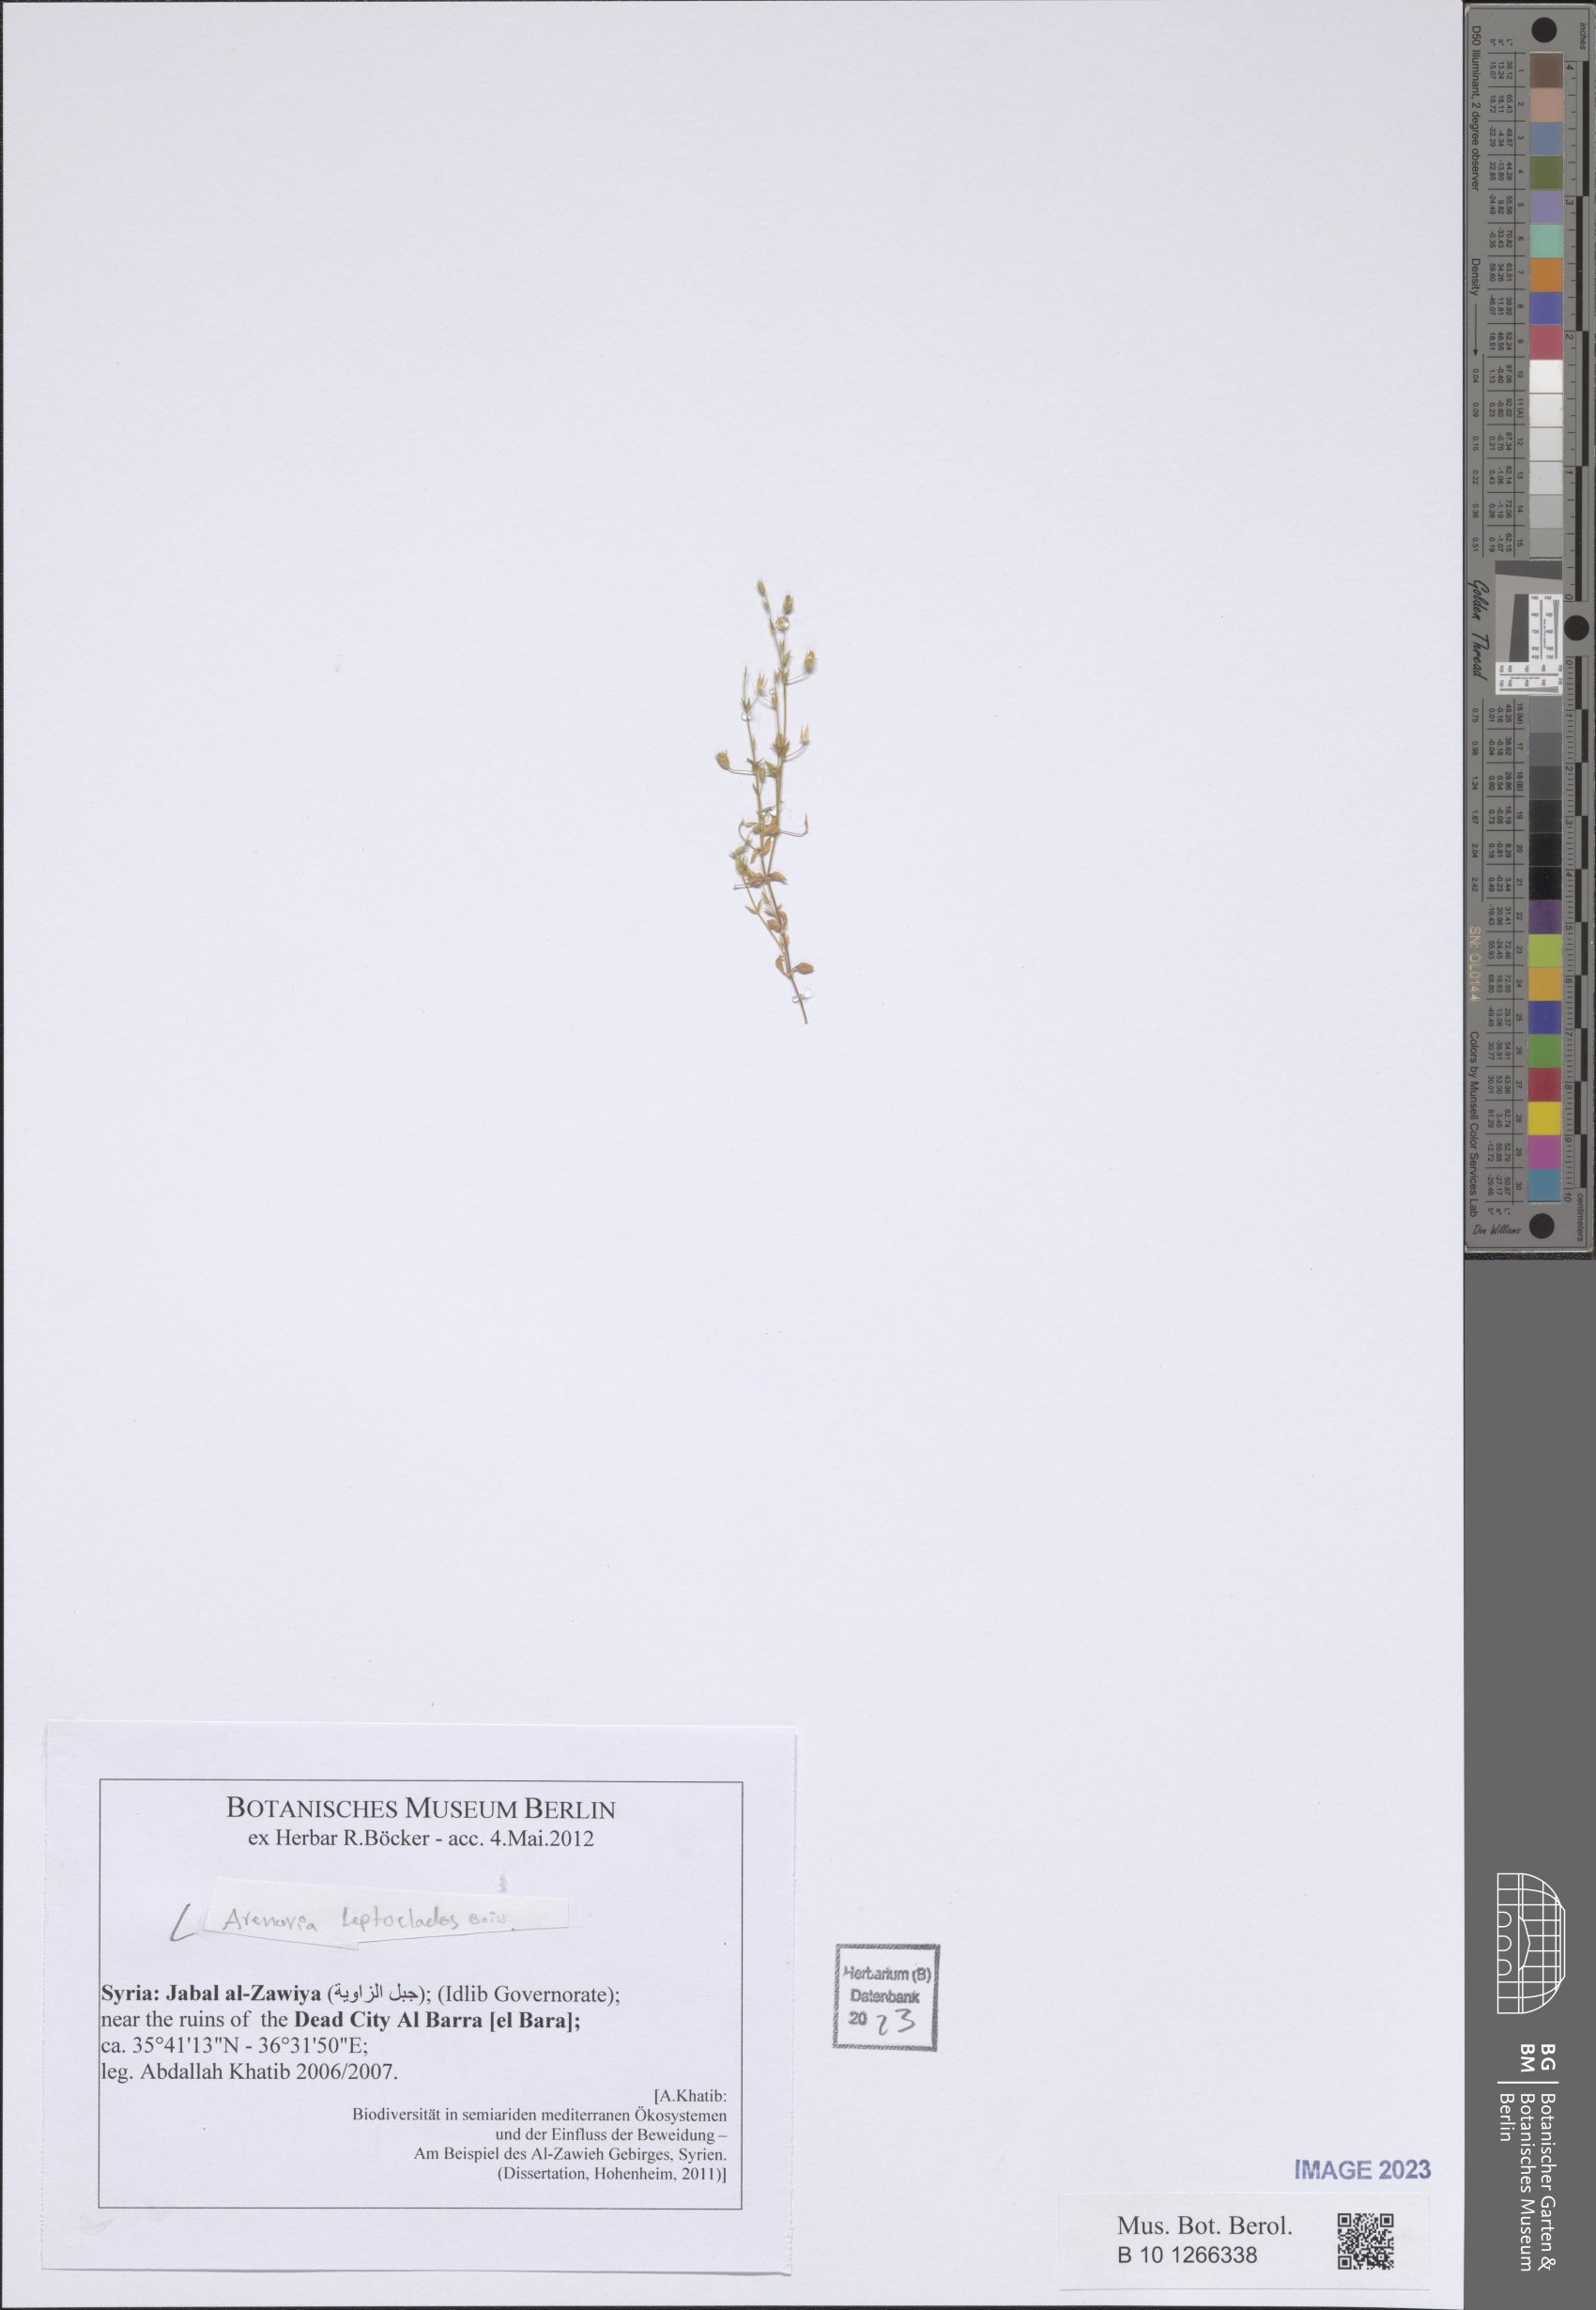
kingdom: Plantae
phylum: Tracheophyta
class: Magnoliopsida
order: Caryophyllales
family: Caryophyllaceae
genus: Arenaria
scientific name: Arenaria leptoclados
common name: Thyme-leaved sandwort
